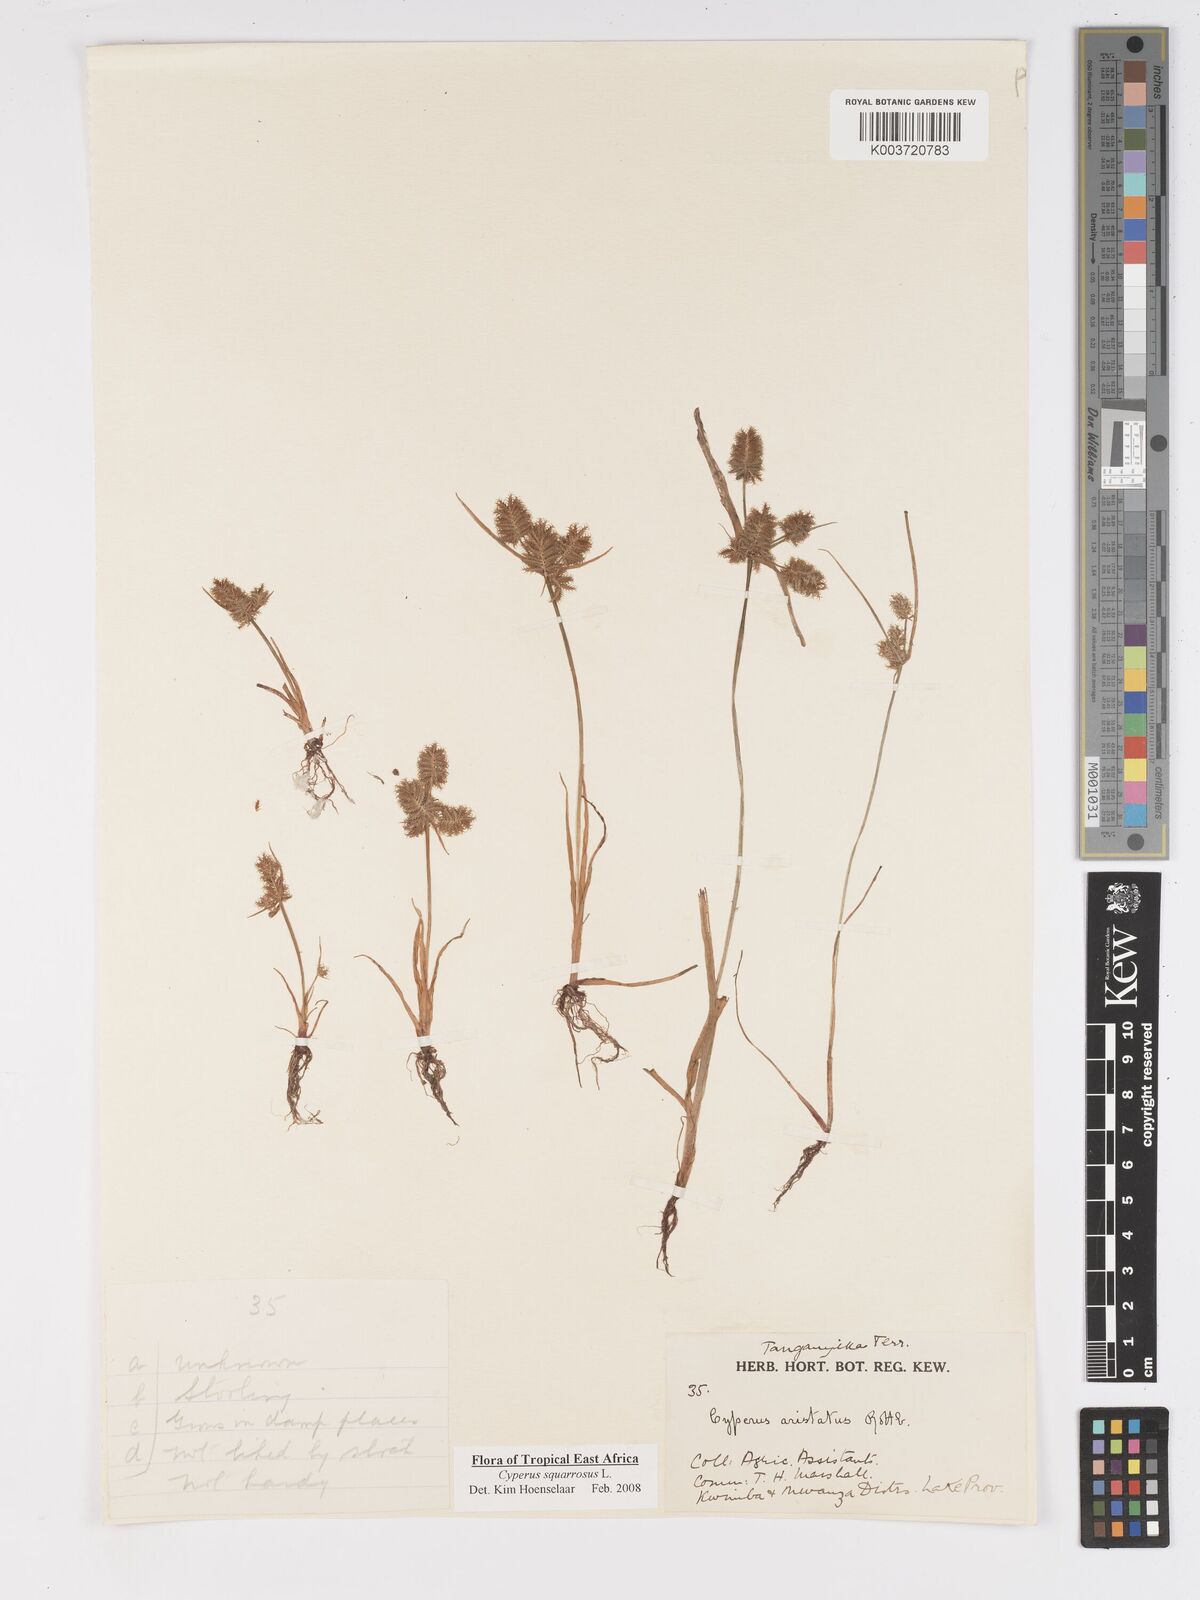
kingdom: Plantae
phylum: Tracheophyta
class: Liliopsida
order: Poales
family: Cyperaceae
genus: Cyperus
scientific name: Cyperus squarrosus
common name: Awned cyperus
